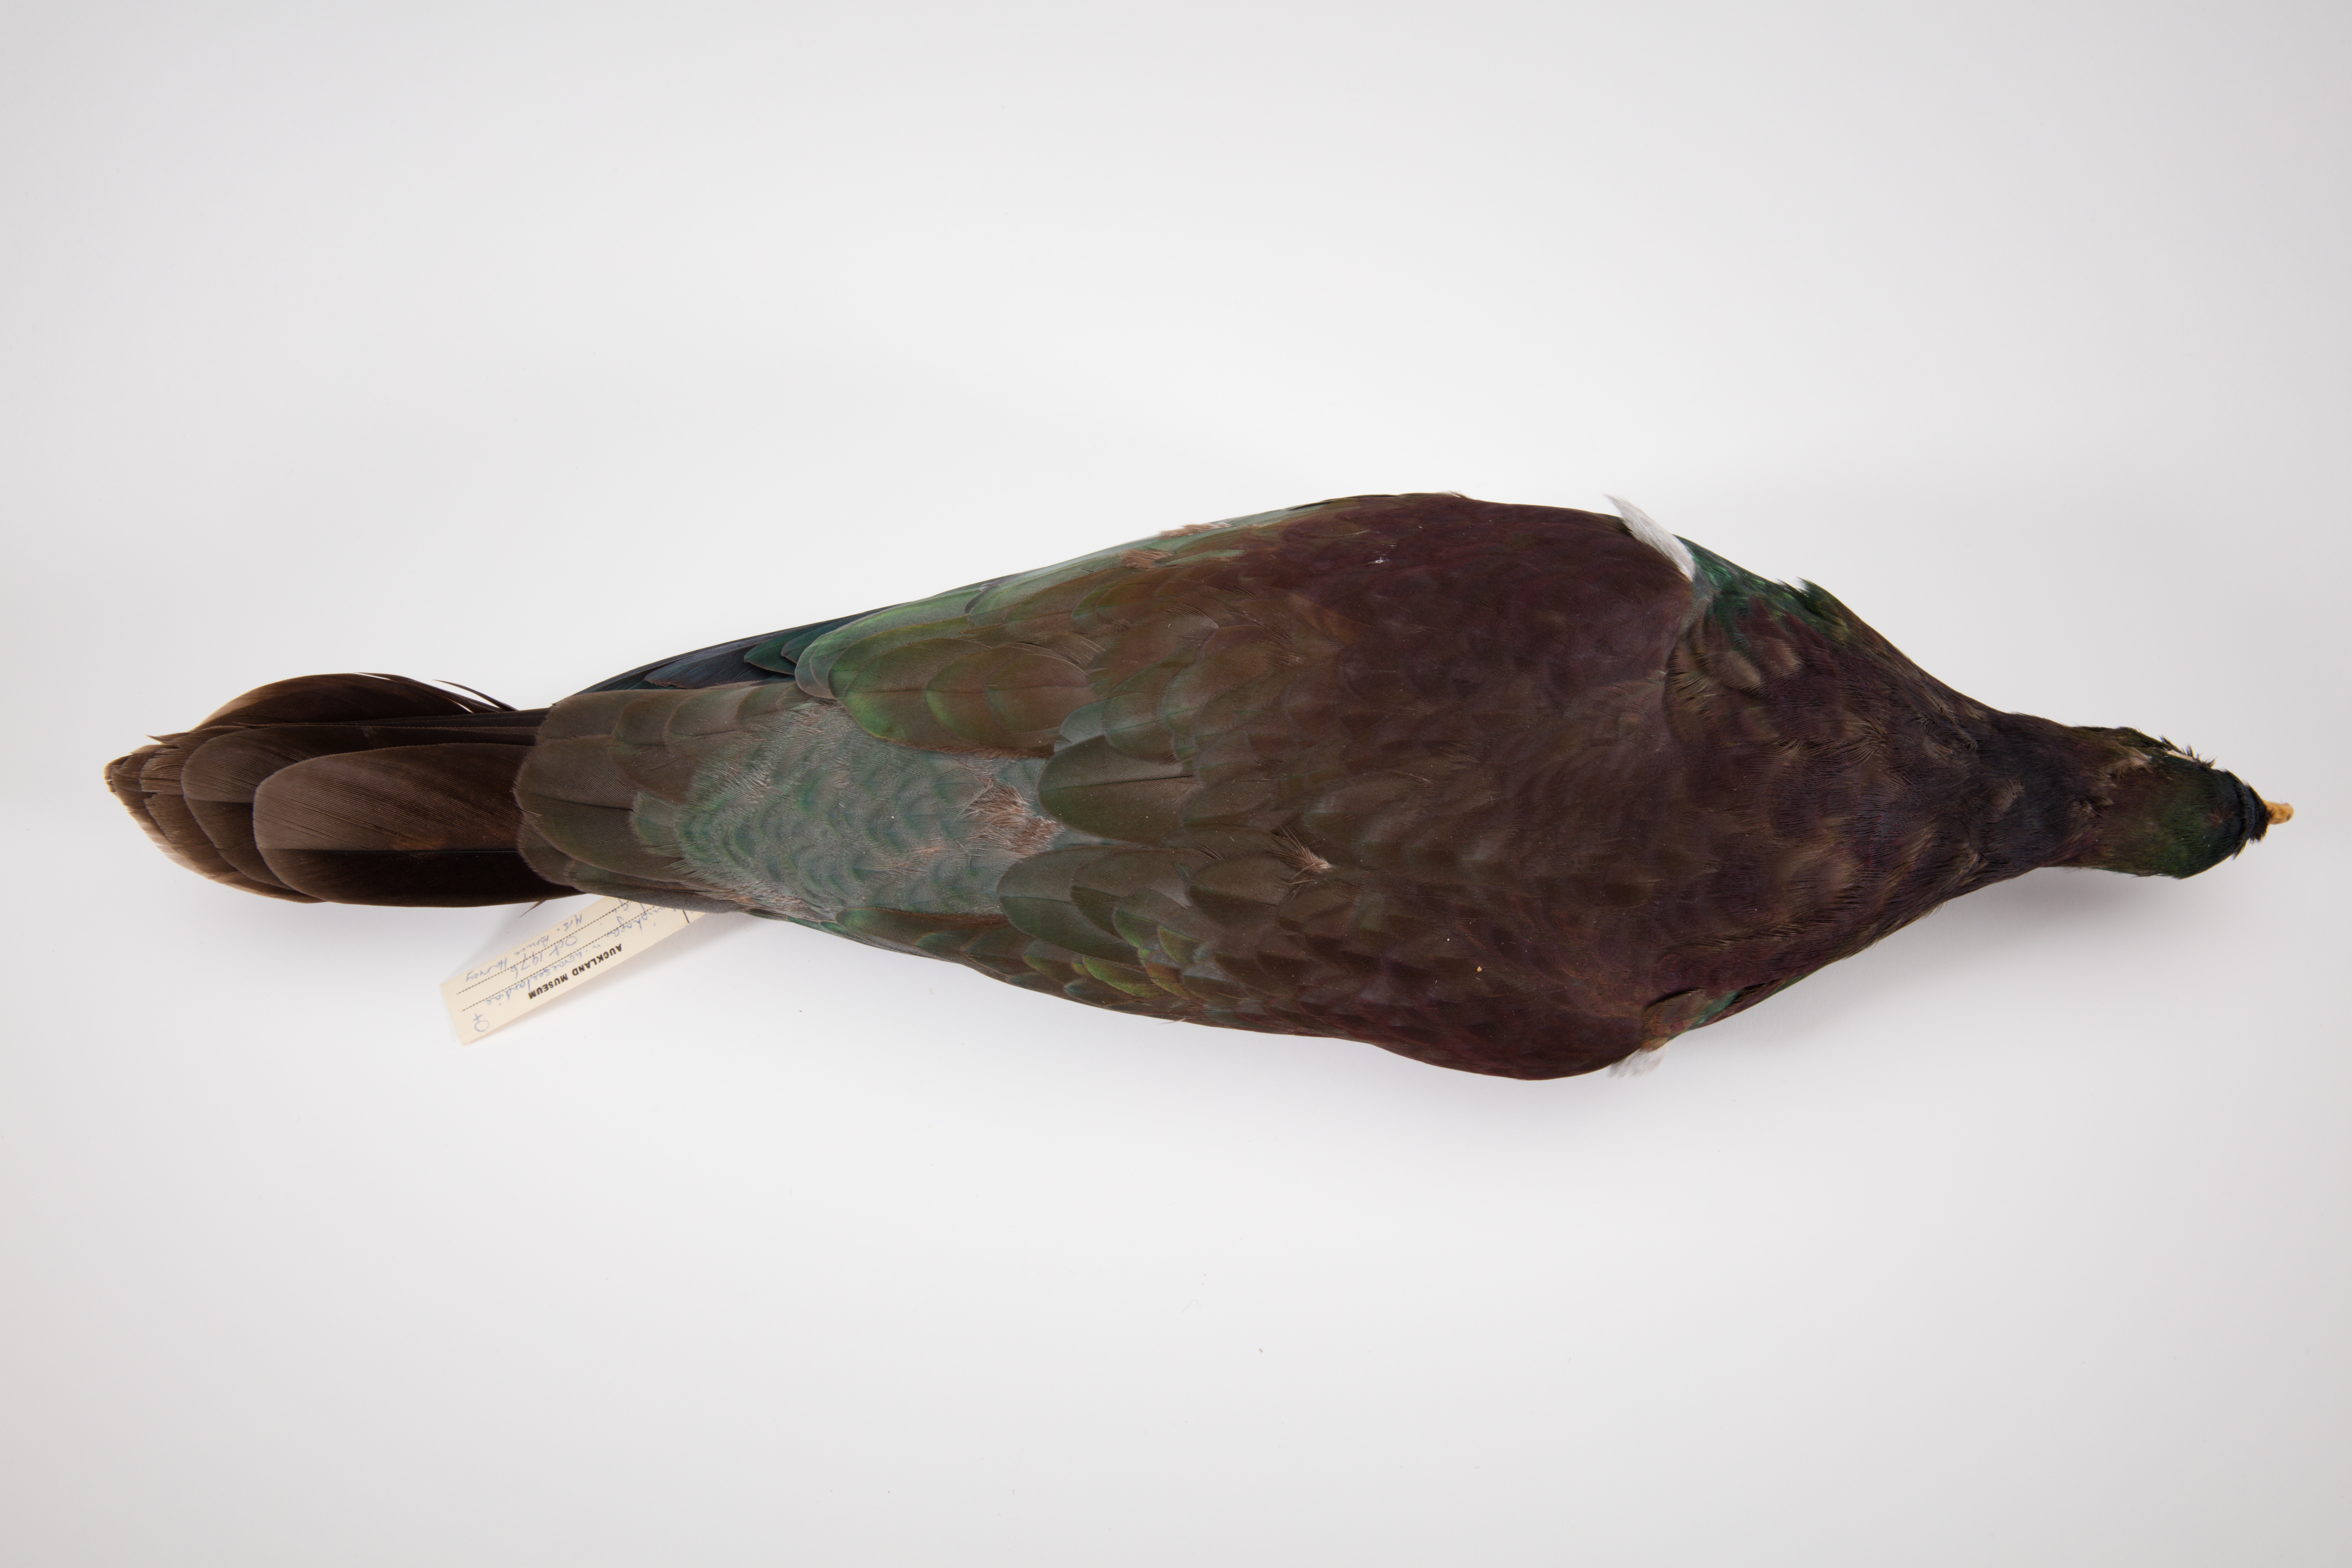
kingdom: Animalia
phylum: Chordata
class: Aves
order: Columbiformes
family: Columbidae
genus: Hemiphaga
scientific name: Hemiphaga novaeseelandiae
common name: New zealand pigeon
